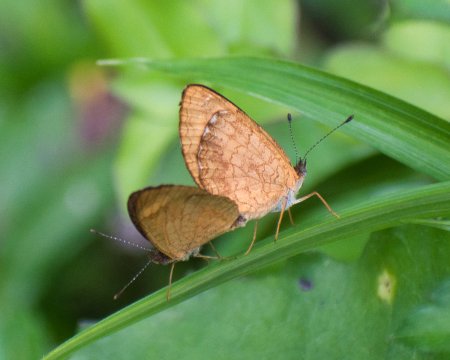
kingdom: Animalia
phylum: Arthropoda
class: Insecta
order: Lepidoptera
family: Nymphalidae
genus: Tegosa
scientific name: Tegosa anieta
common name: Black-bordered Crescent
